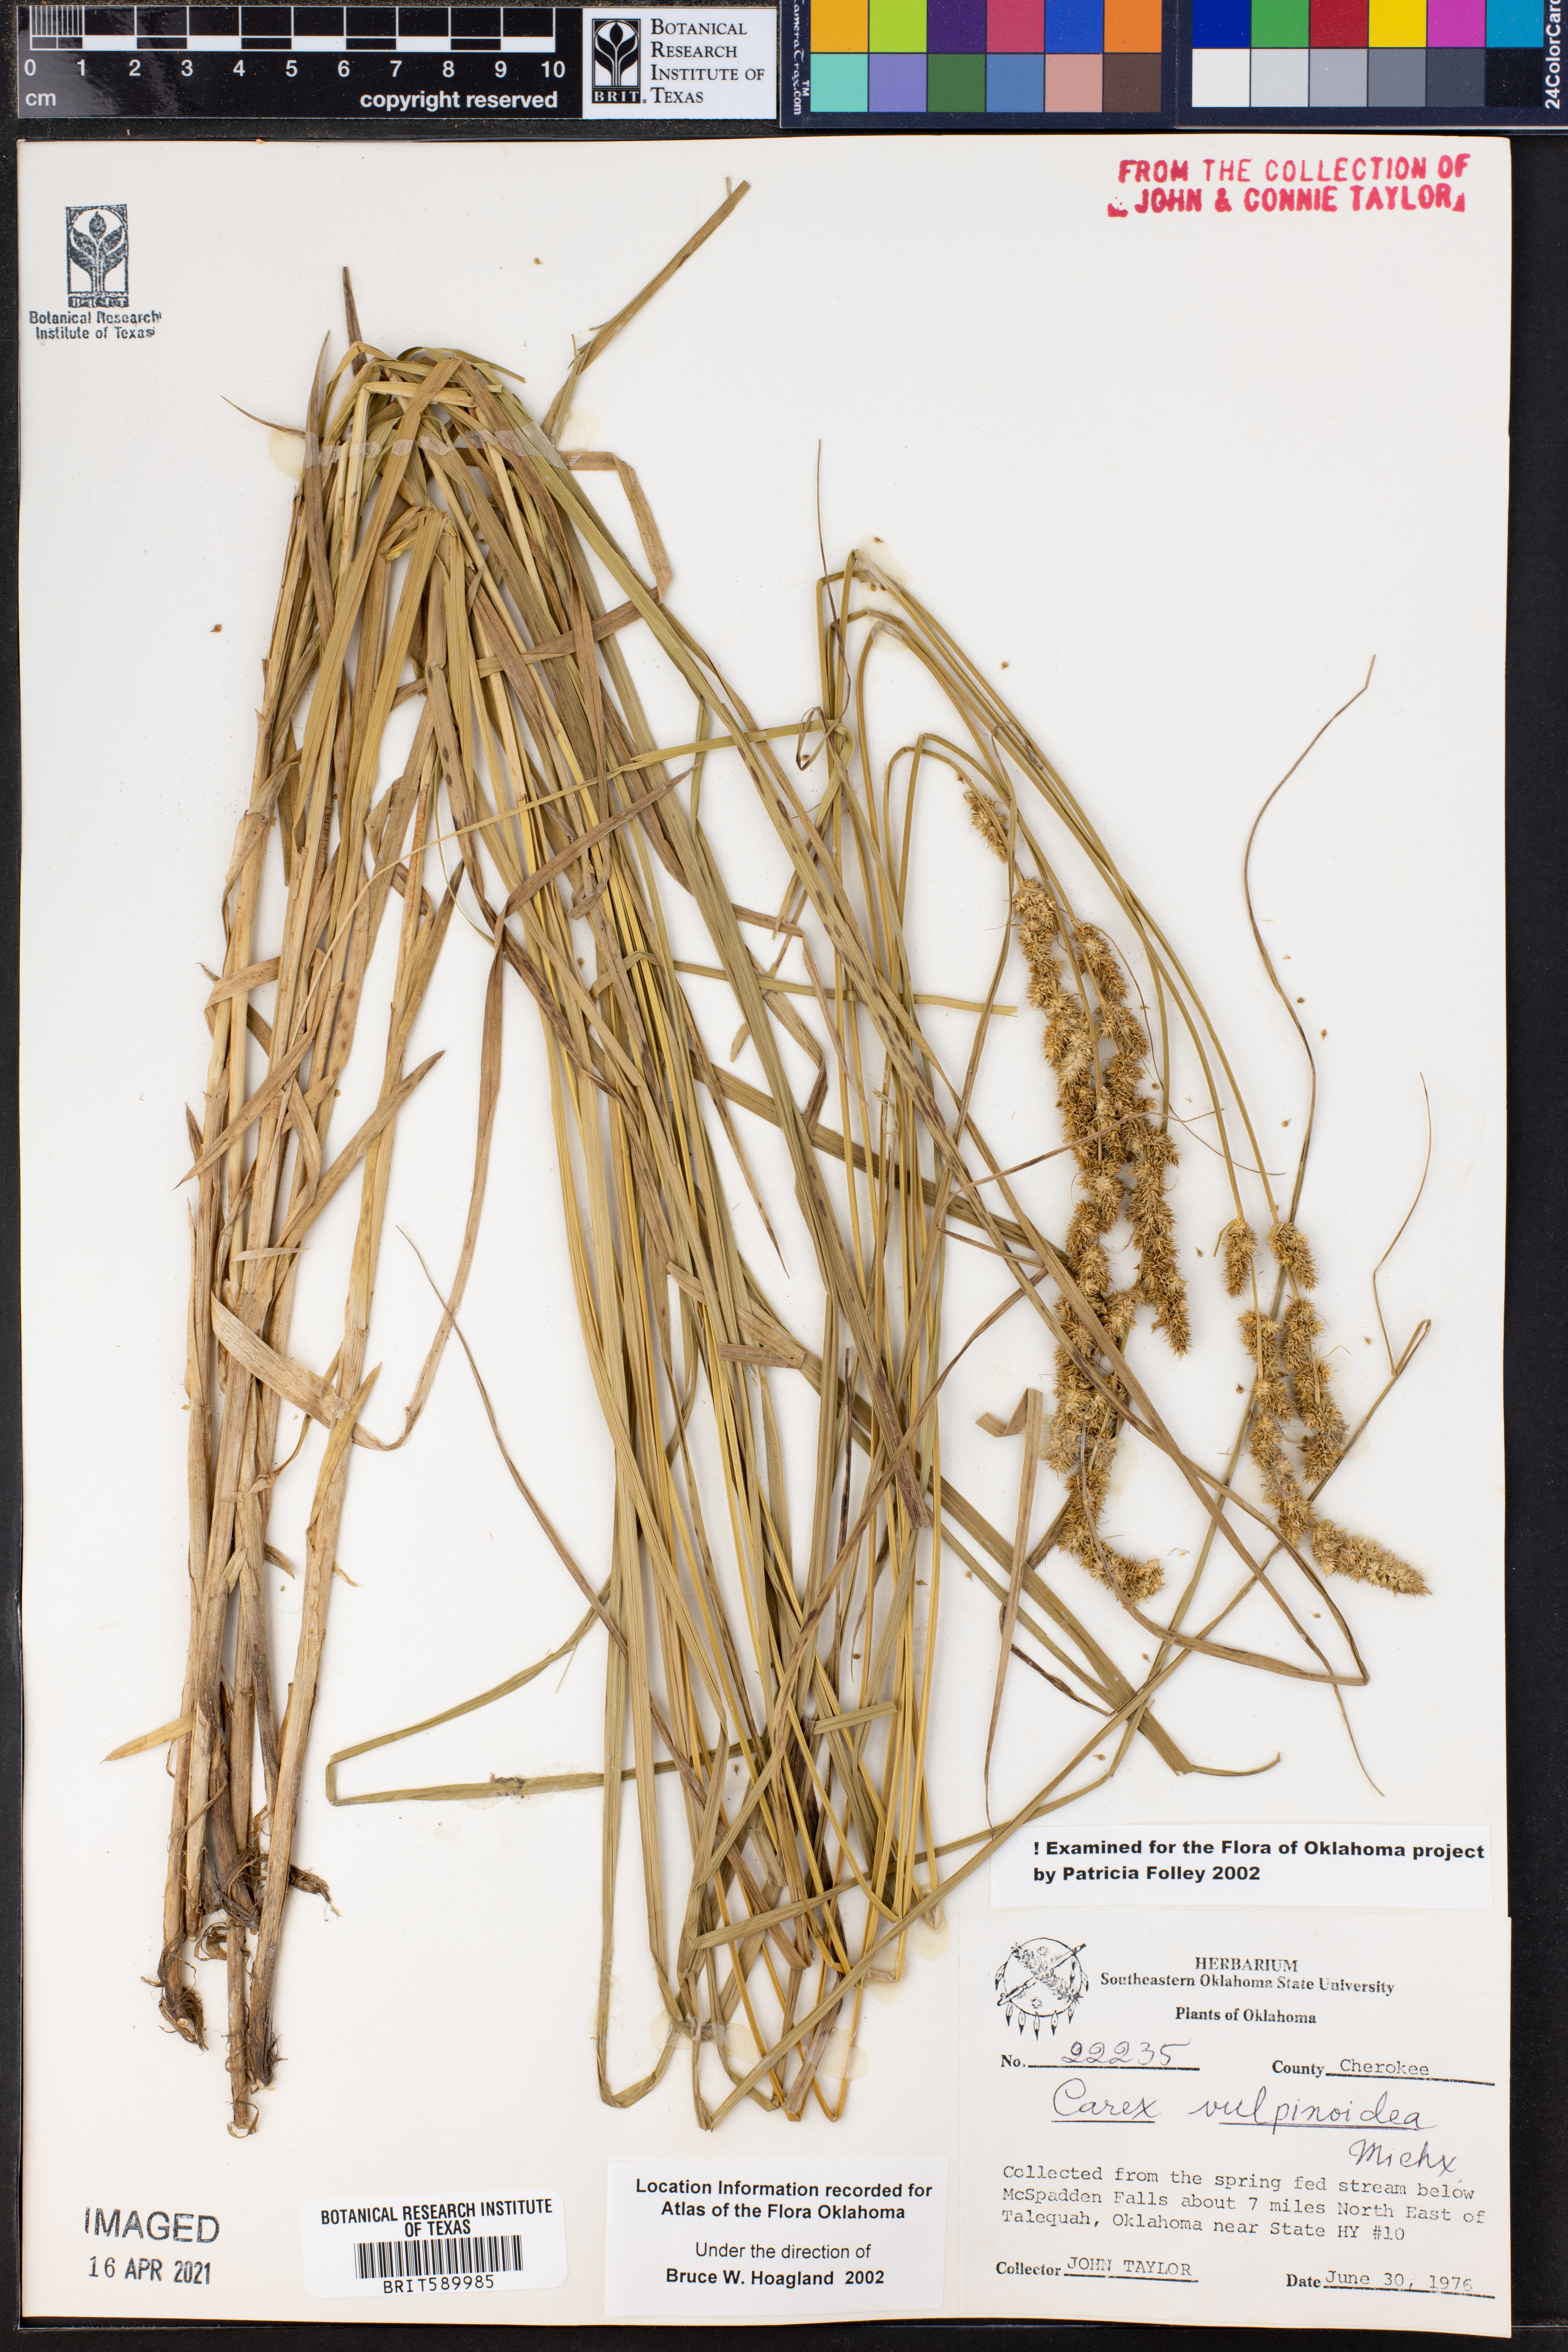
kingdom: Plantae
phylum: Tracheophyta
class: Liliopsida
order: Poales
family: Cyperaceae
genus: Carex
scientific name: Carex vulpinoidea
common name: American fox-sedge
